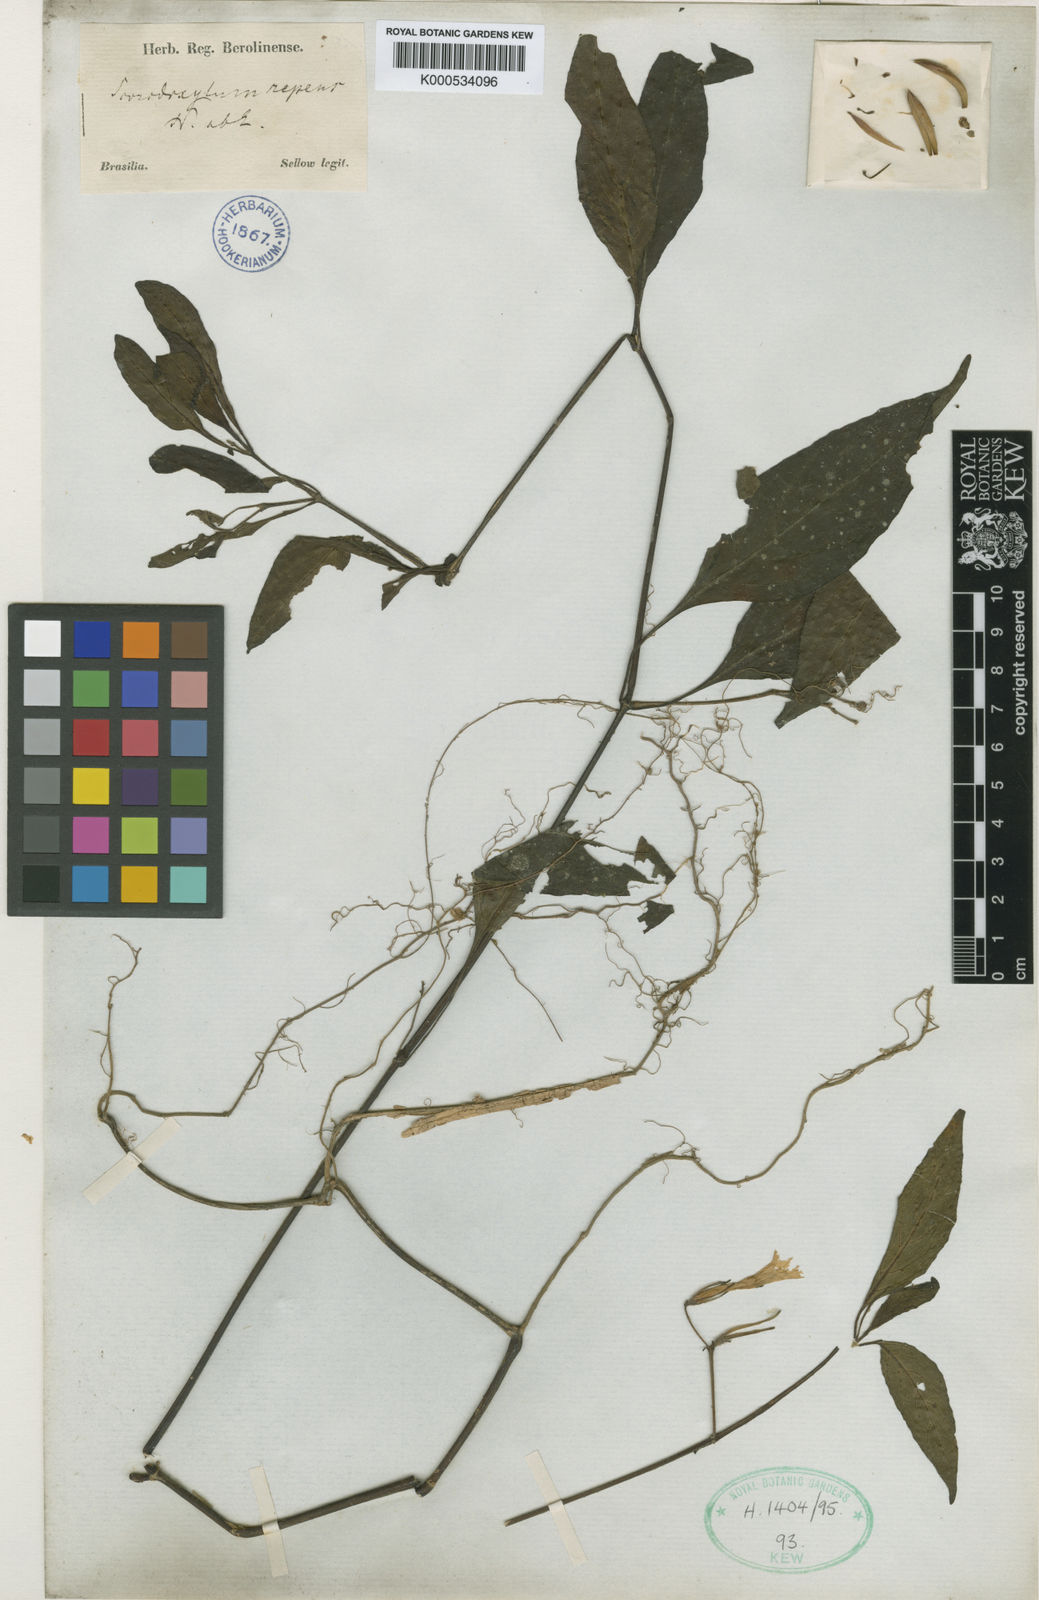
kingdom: Plantae
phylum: Tracheophyta
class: Magnoliopsida
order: Lamiales
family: Acanthaceae
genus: Ruellia
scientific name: Ruellia Arrhostoxylum repens
